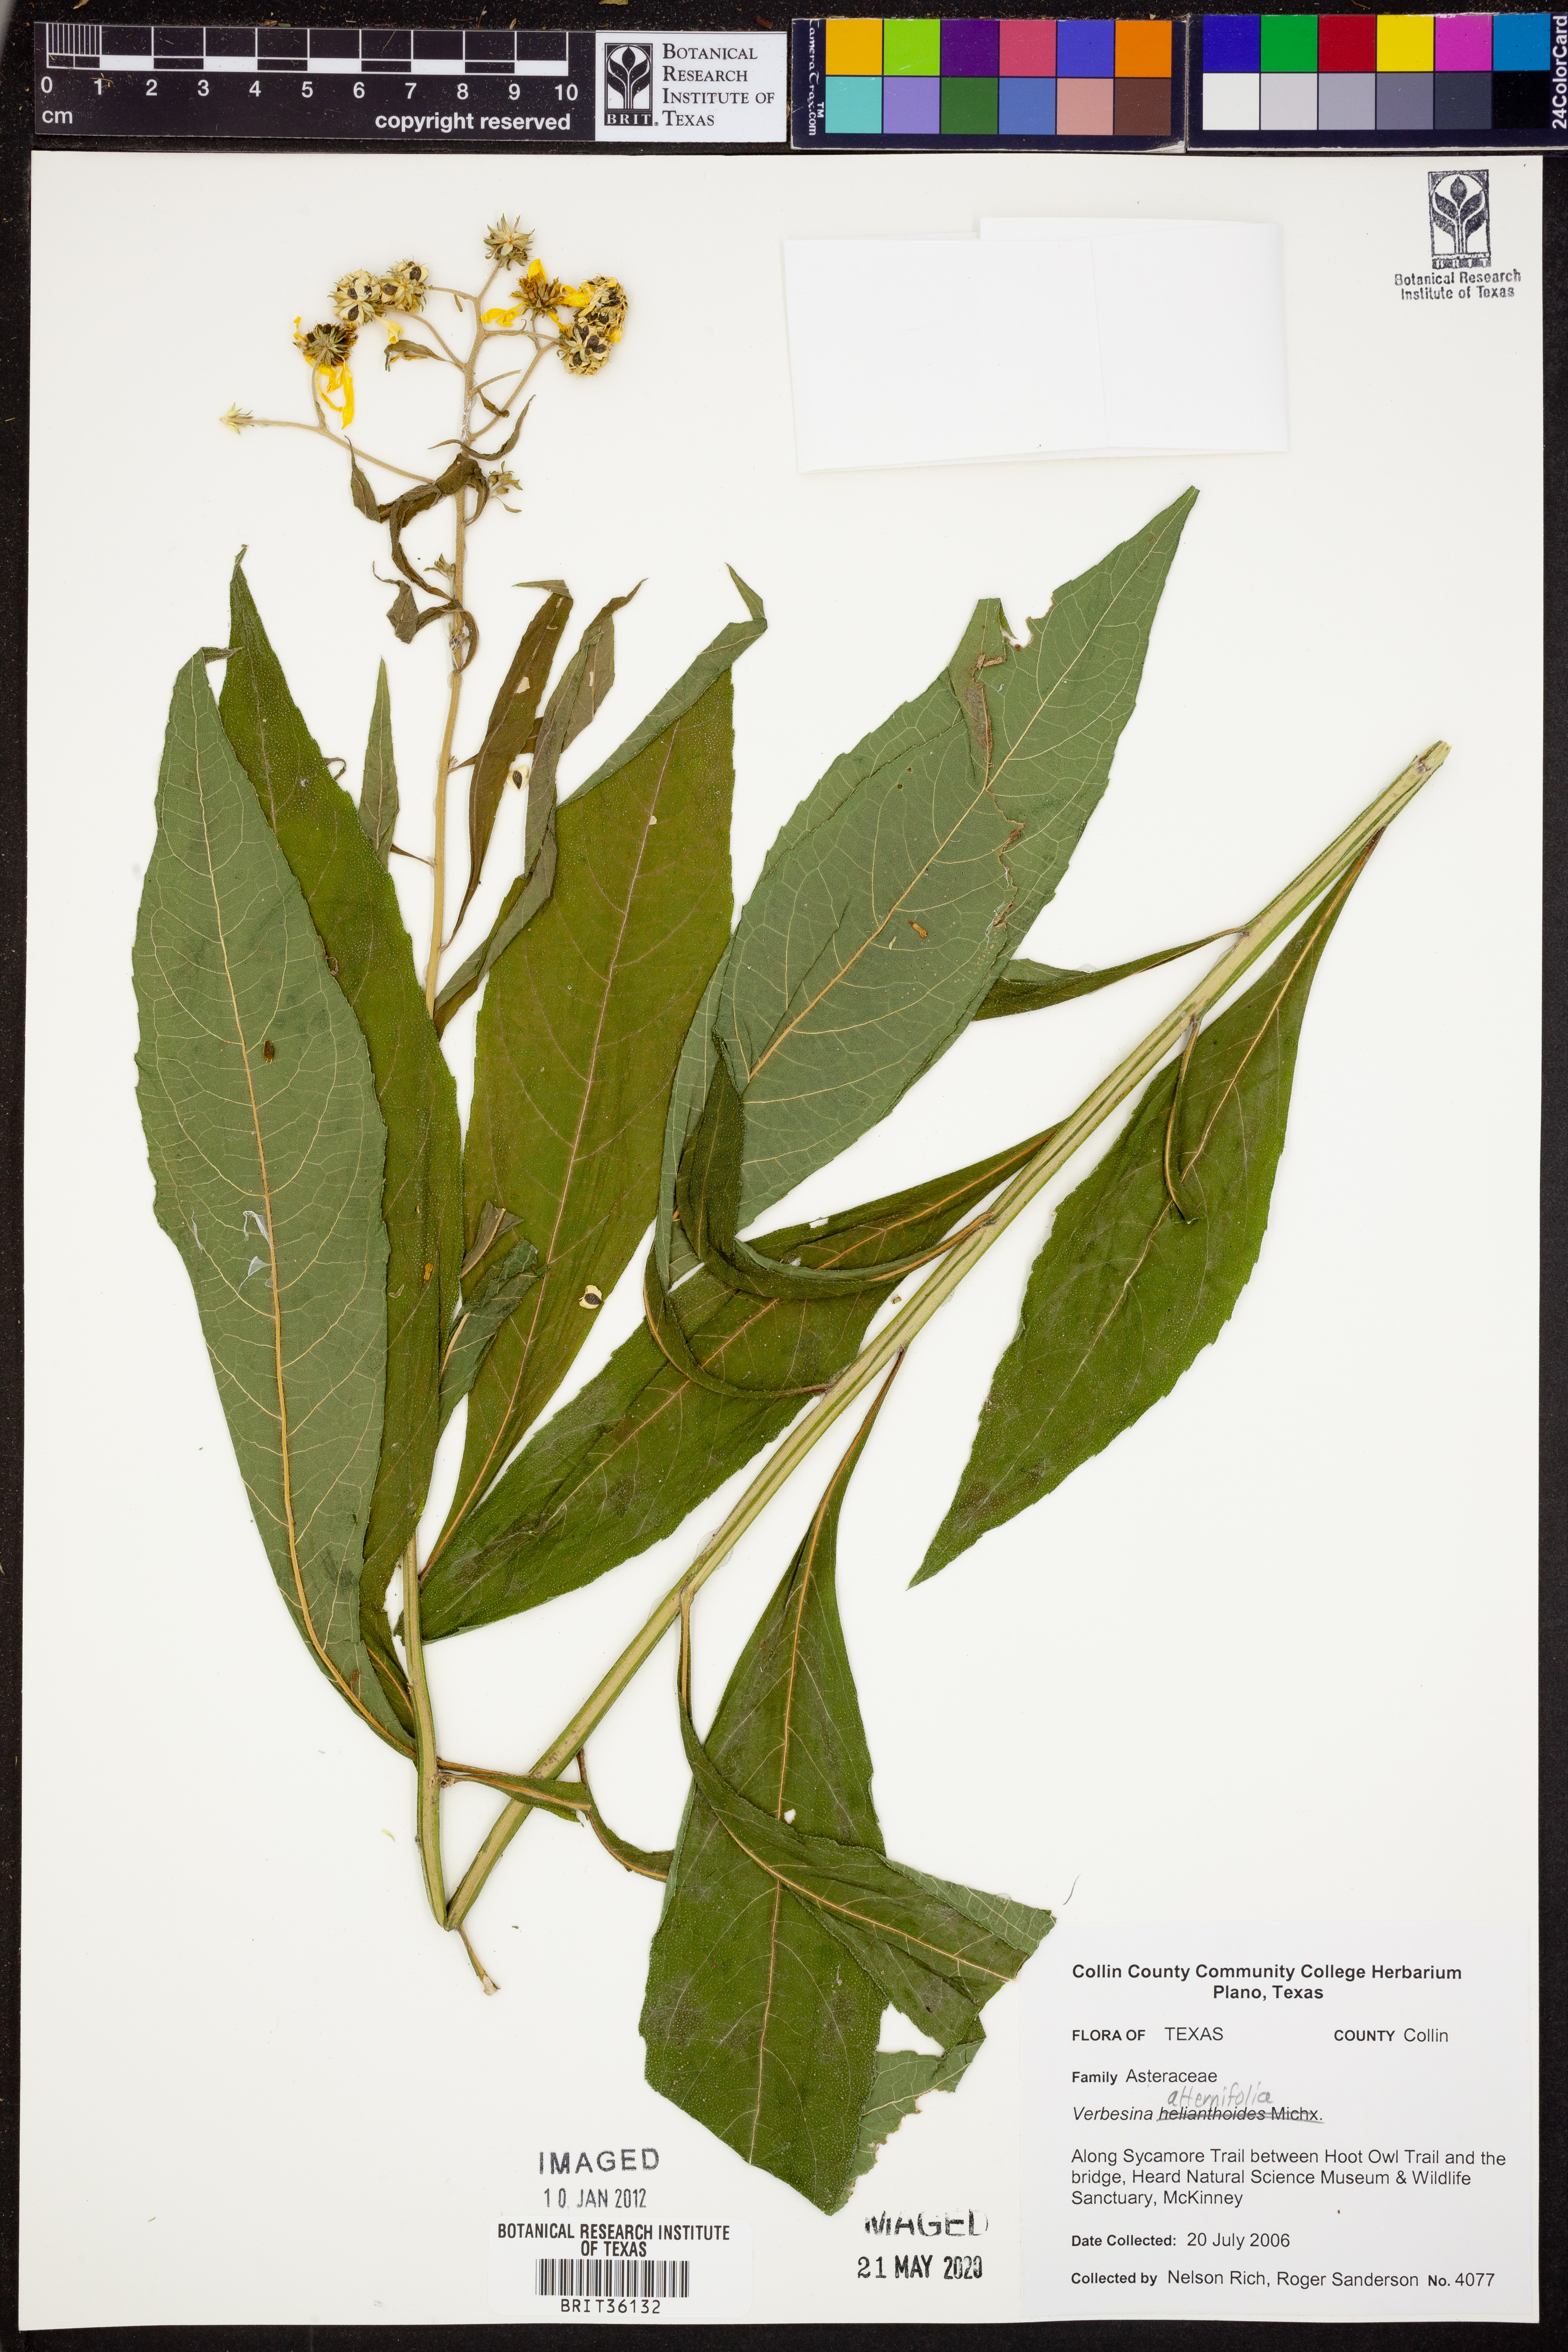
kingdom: Plantae
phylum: Tracheophyta
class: Magnoliopsida
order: Asterales
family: Asteraceae
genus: Verbesina
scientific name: Verbesina alternifolia
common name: Wingstem
